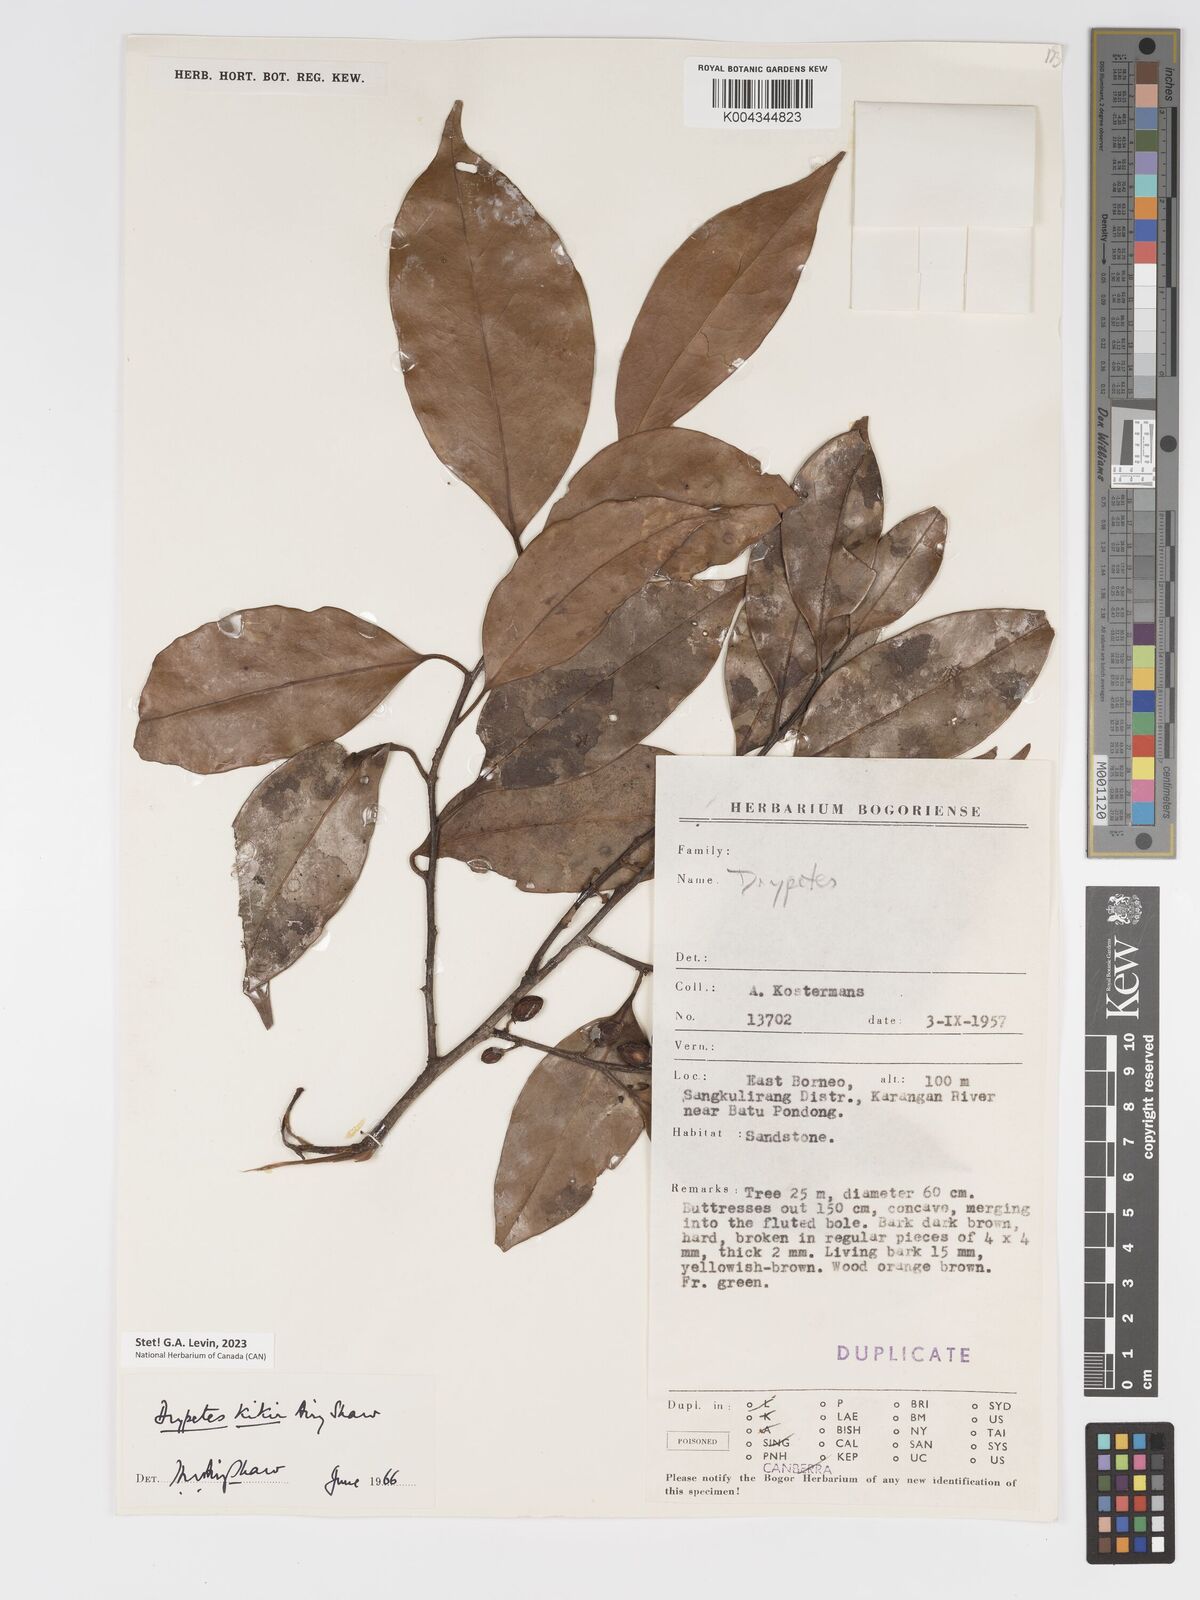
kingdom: Plantae
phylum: Tracheophyta
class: Magnoliopsida
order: Malpighiales
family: Putranjivaceae
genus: Drypetes
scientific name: Drypetes kikir
